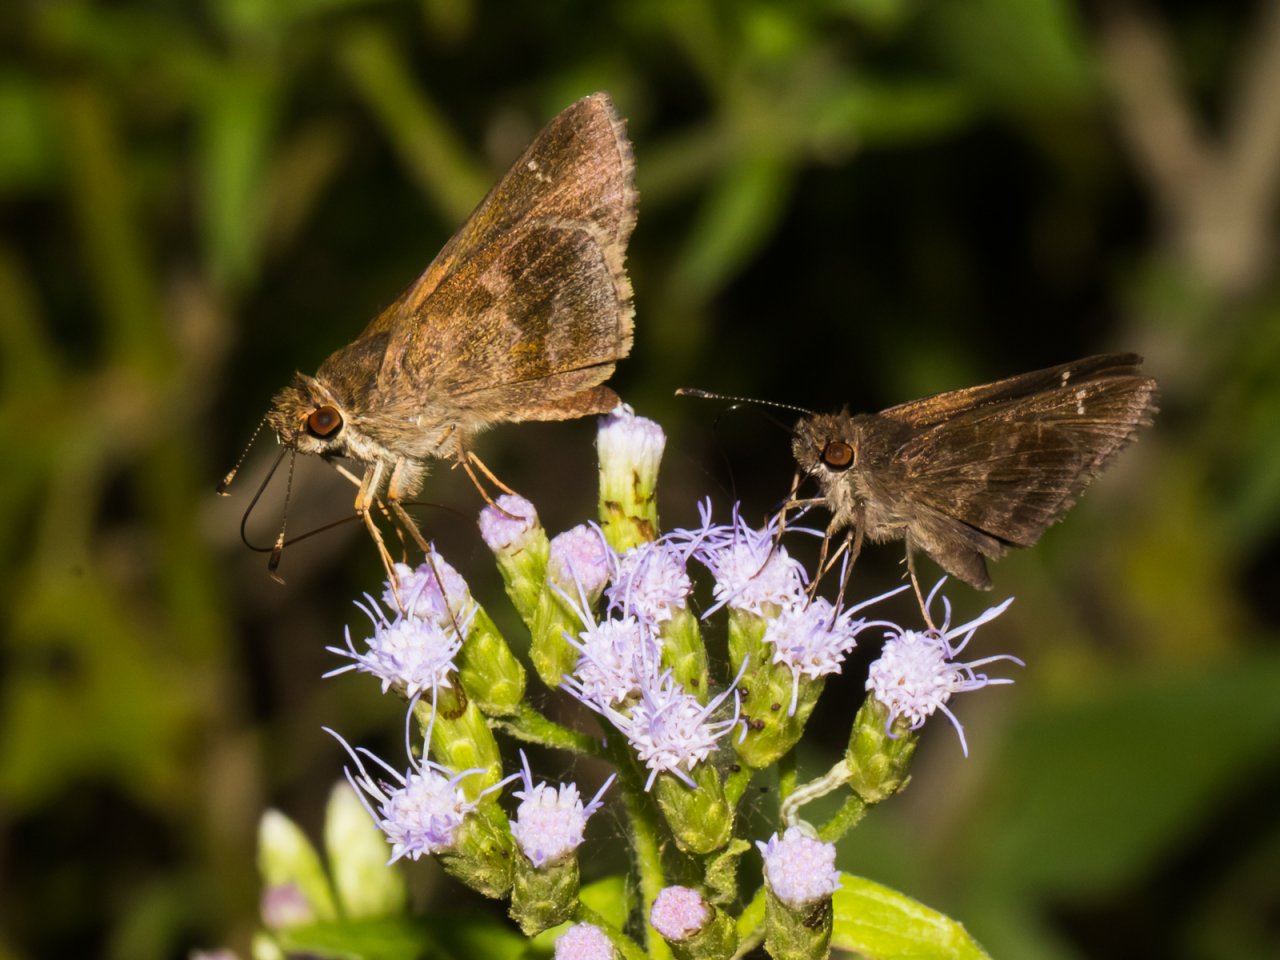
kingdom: Animalia
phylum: Arthropoda
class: Insecta
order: Lepidoptera
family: Hesperiidae
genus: Cymaenes
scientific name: Cymaenes odilia
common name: Fawn-spotted Skipper
